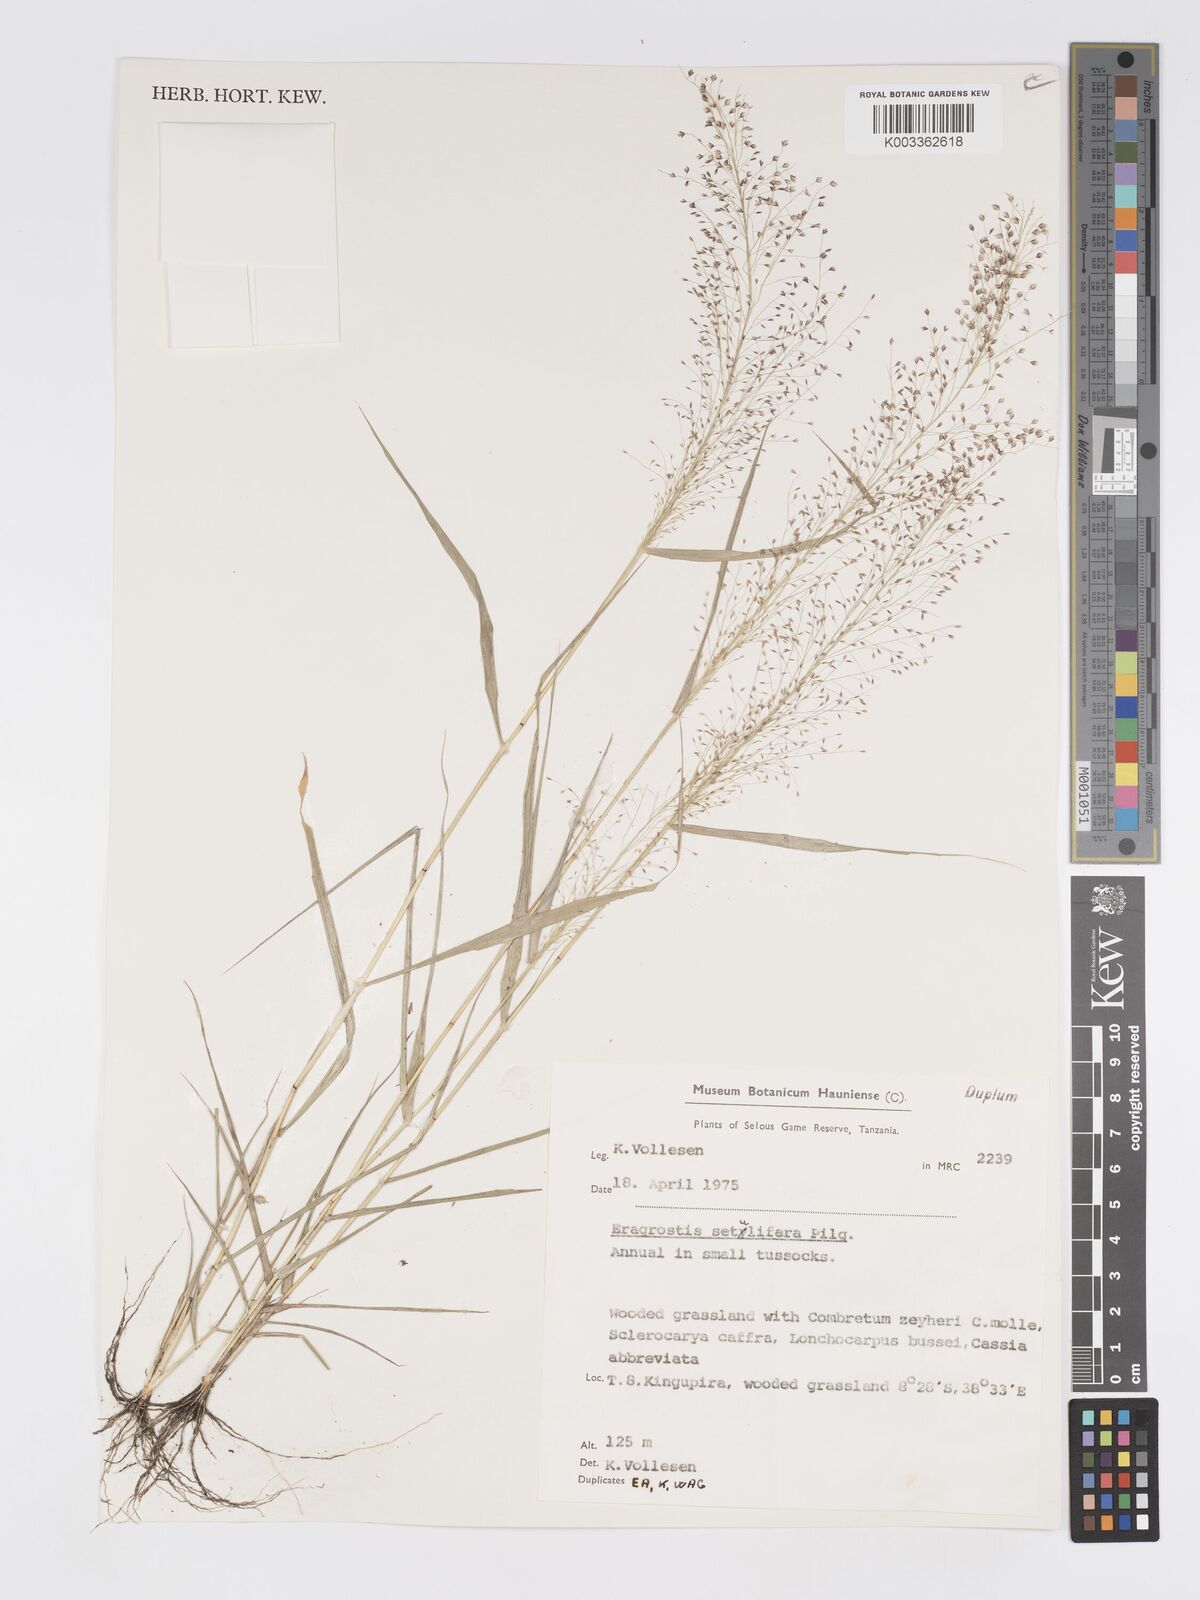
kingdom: Plantae
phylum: Tracheophyta
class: Liliopsida
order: Poales
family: Poaceae
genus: Eragrostis
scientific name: Eragrostis setulifera
